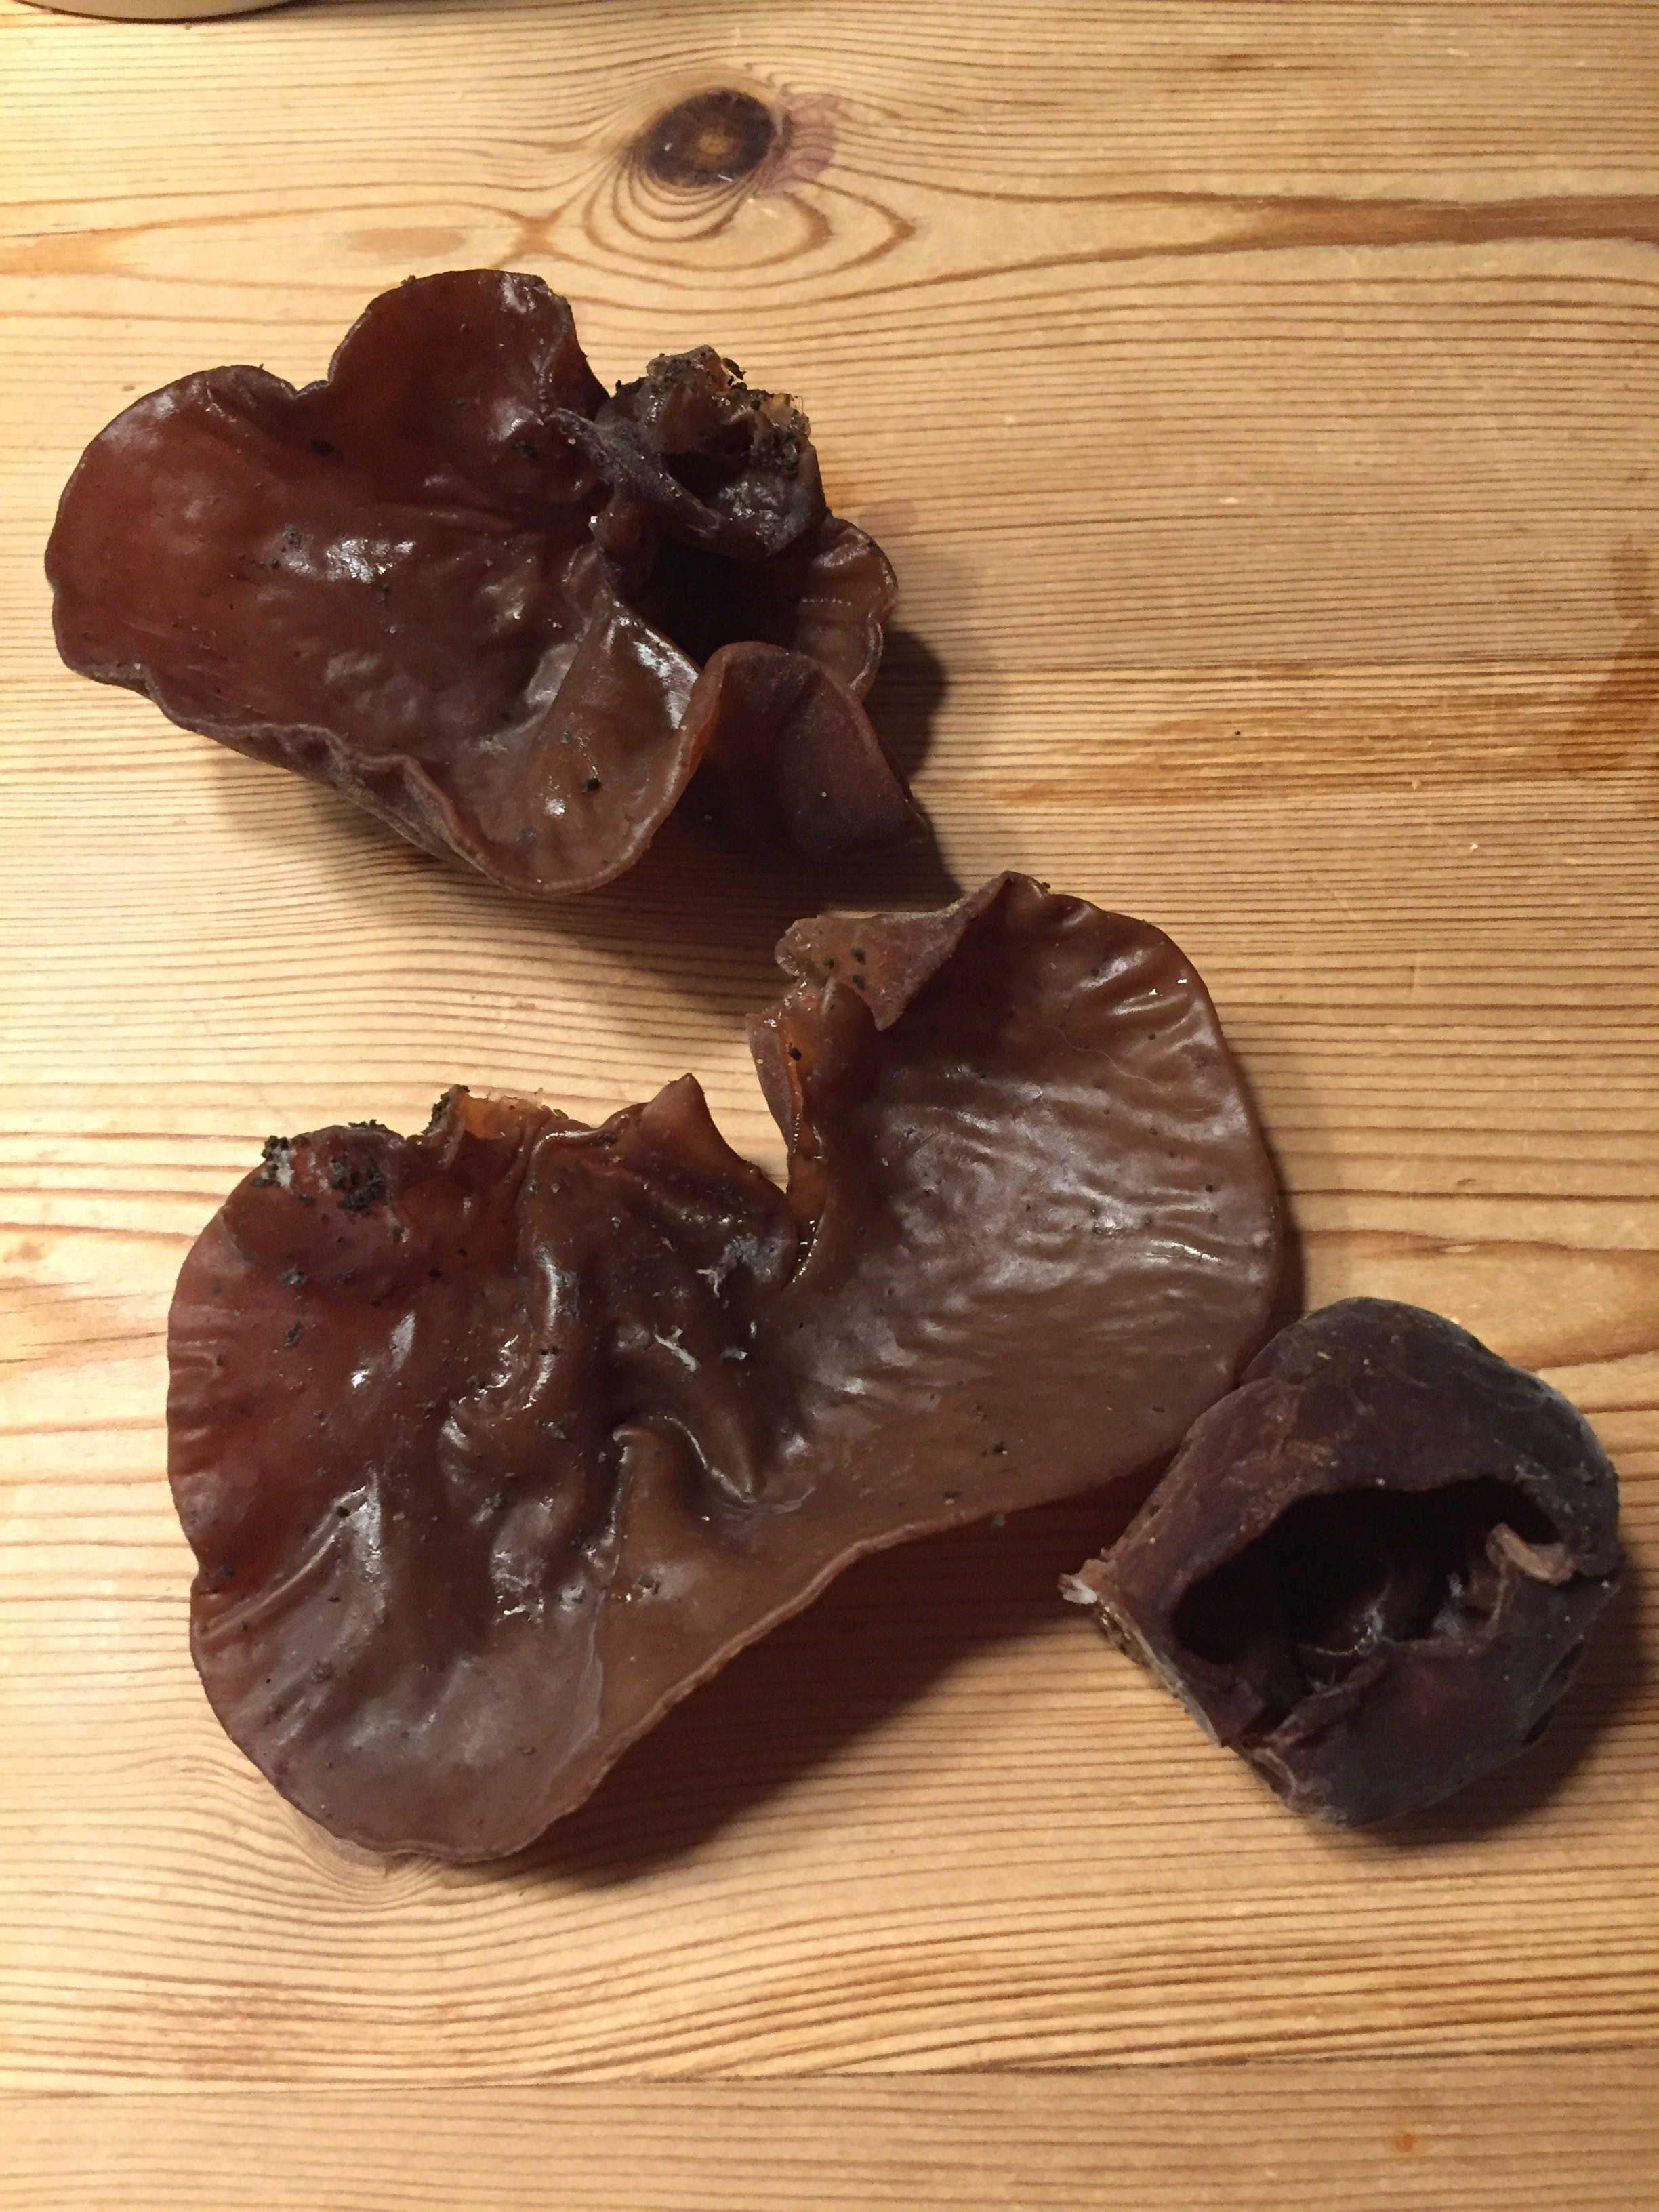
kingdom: Fungi
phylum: Basidiomycota
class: Agaricomycetes
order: Auriculariales
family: Auriculariaceae
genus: Auricularia
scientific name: Auricularia auricula-judae
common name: almindelig judasøre
